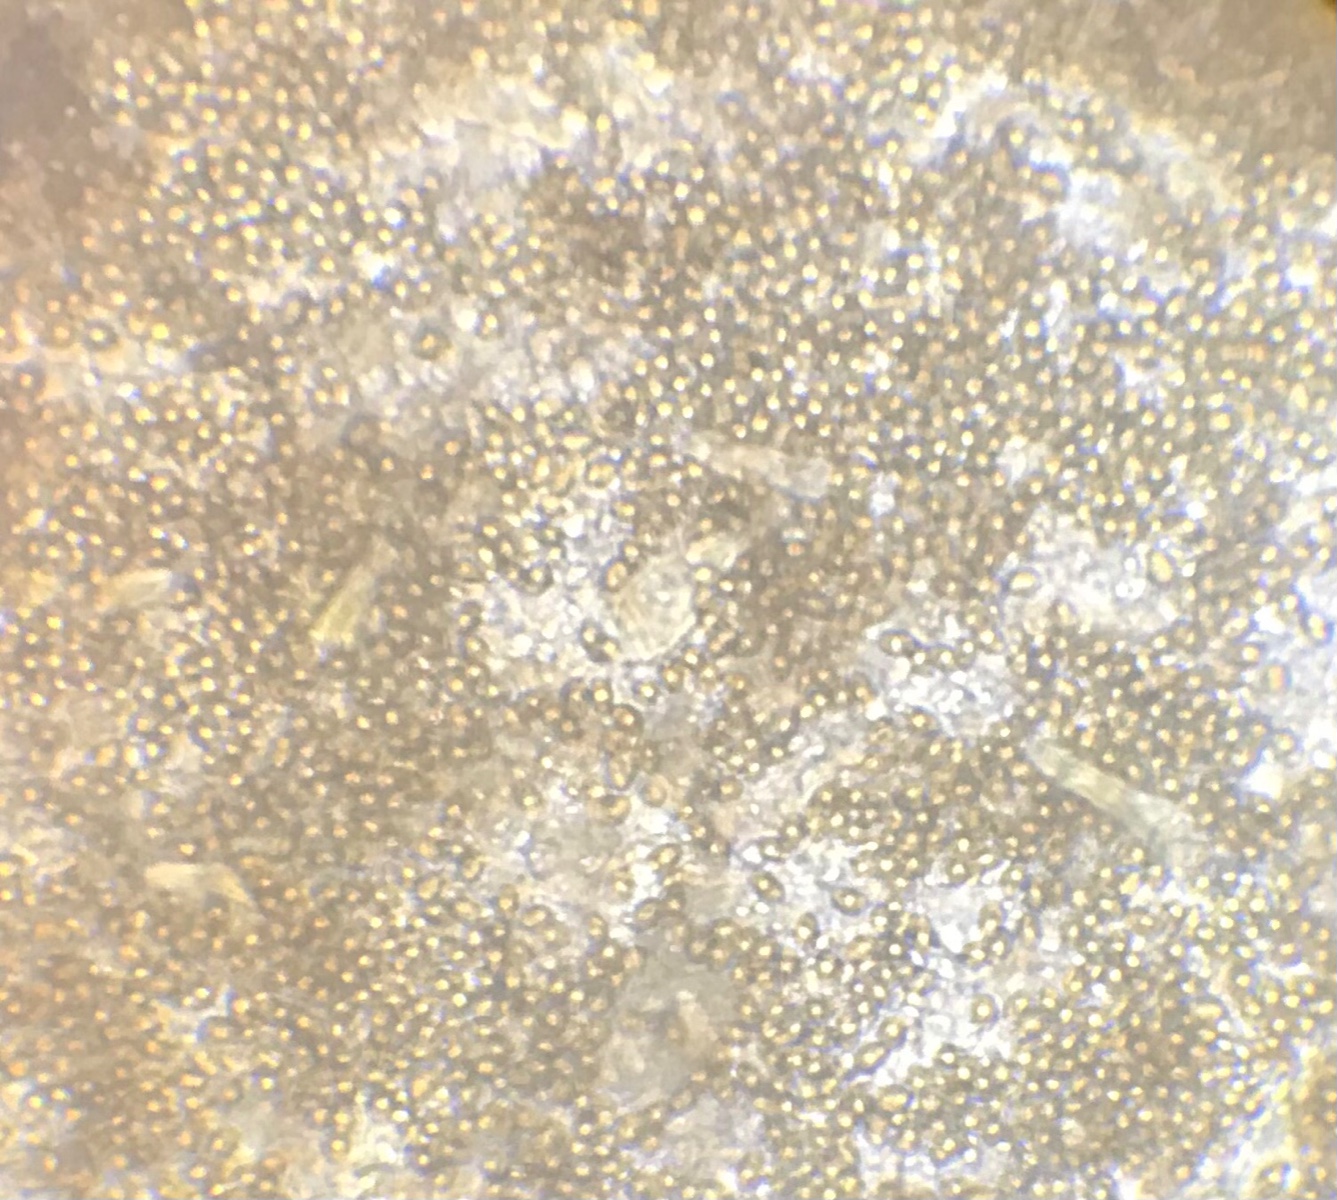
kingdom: Fungi
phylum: Basidiomycota
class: Agaricomycetes
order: Agaricales
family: Inocybaceae
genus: Inocybe
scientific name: Inocybe cincinnata
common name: lillabladet trævlhat
